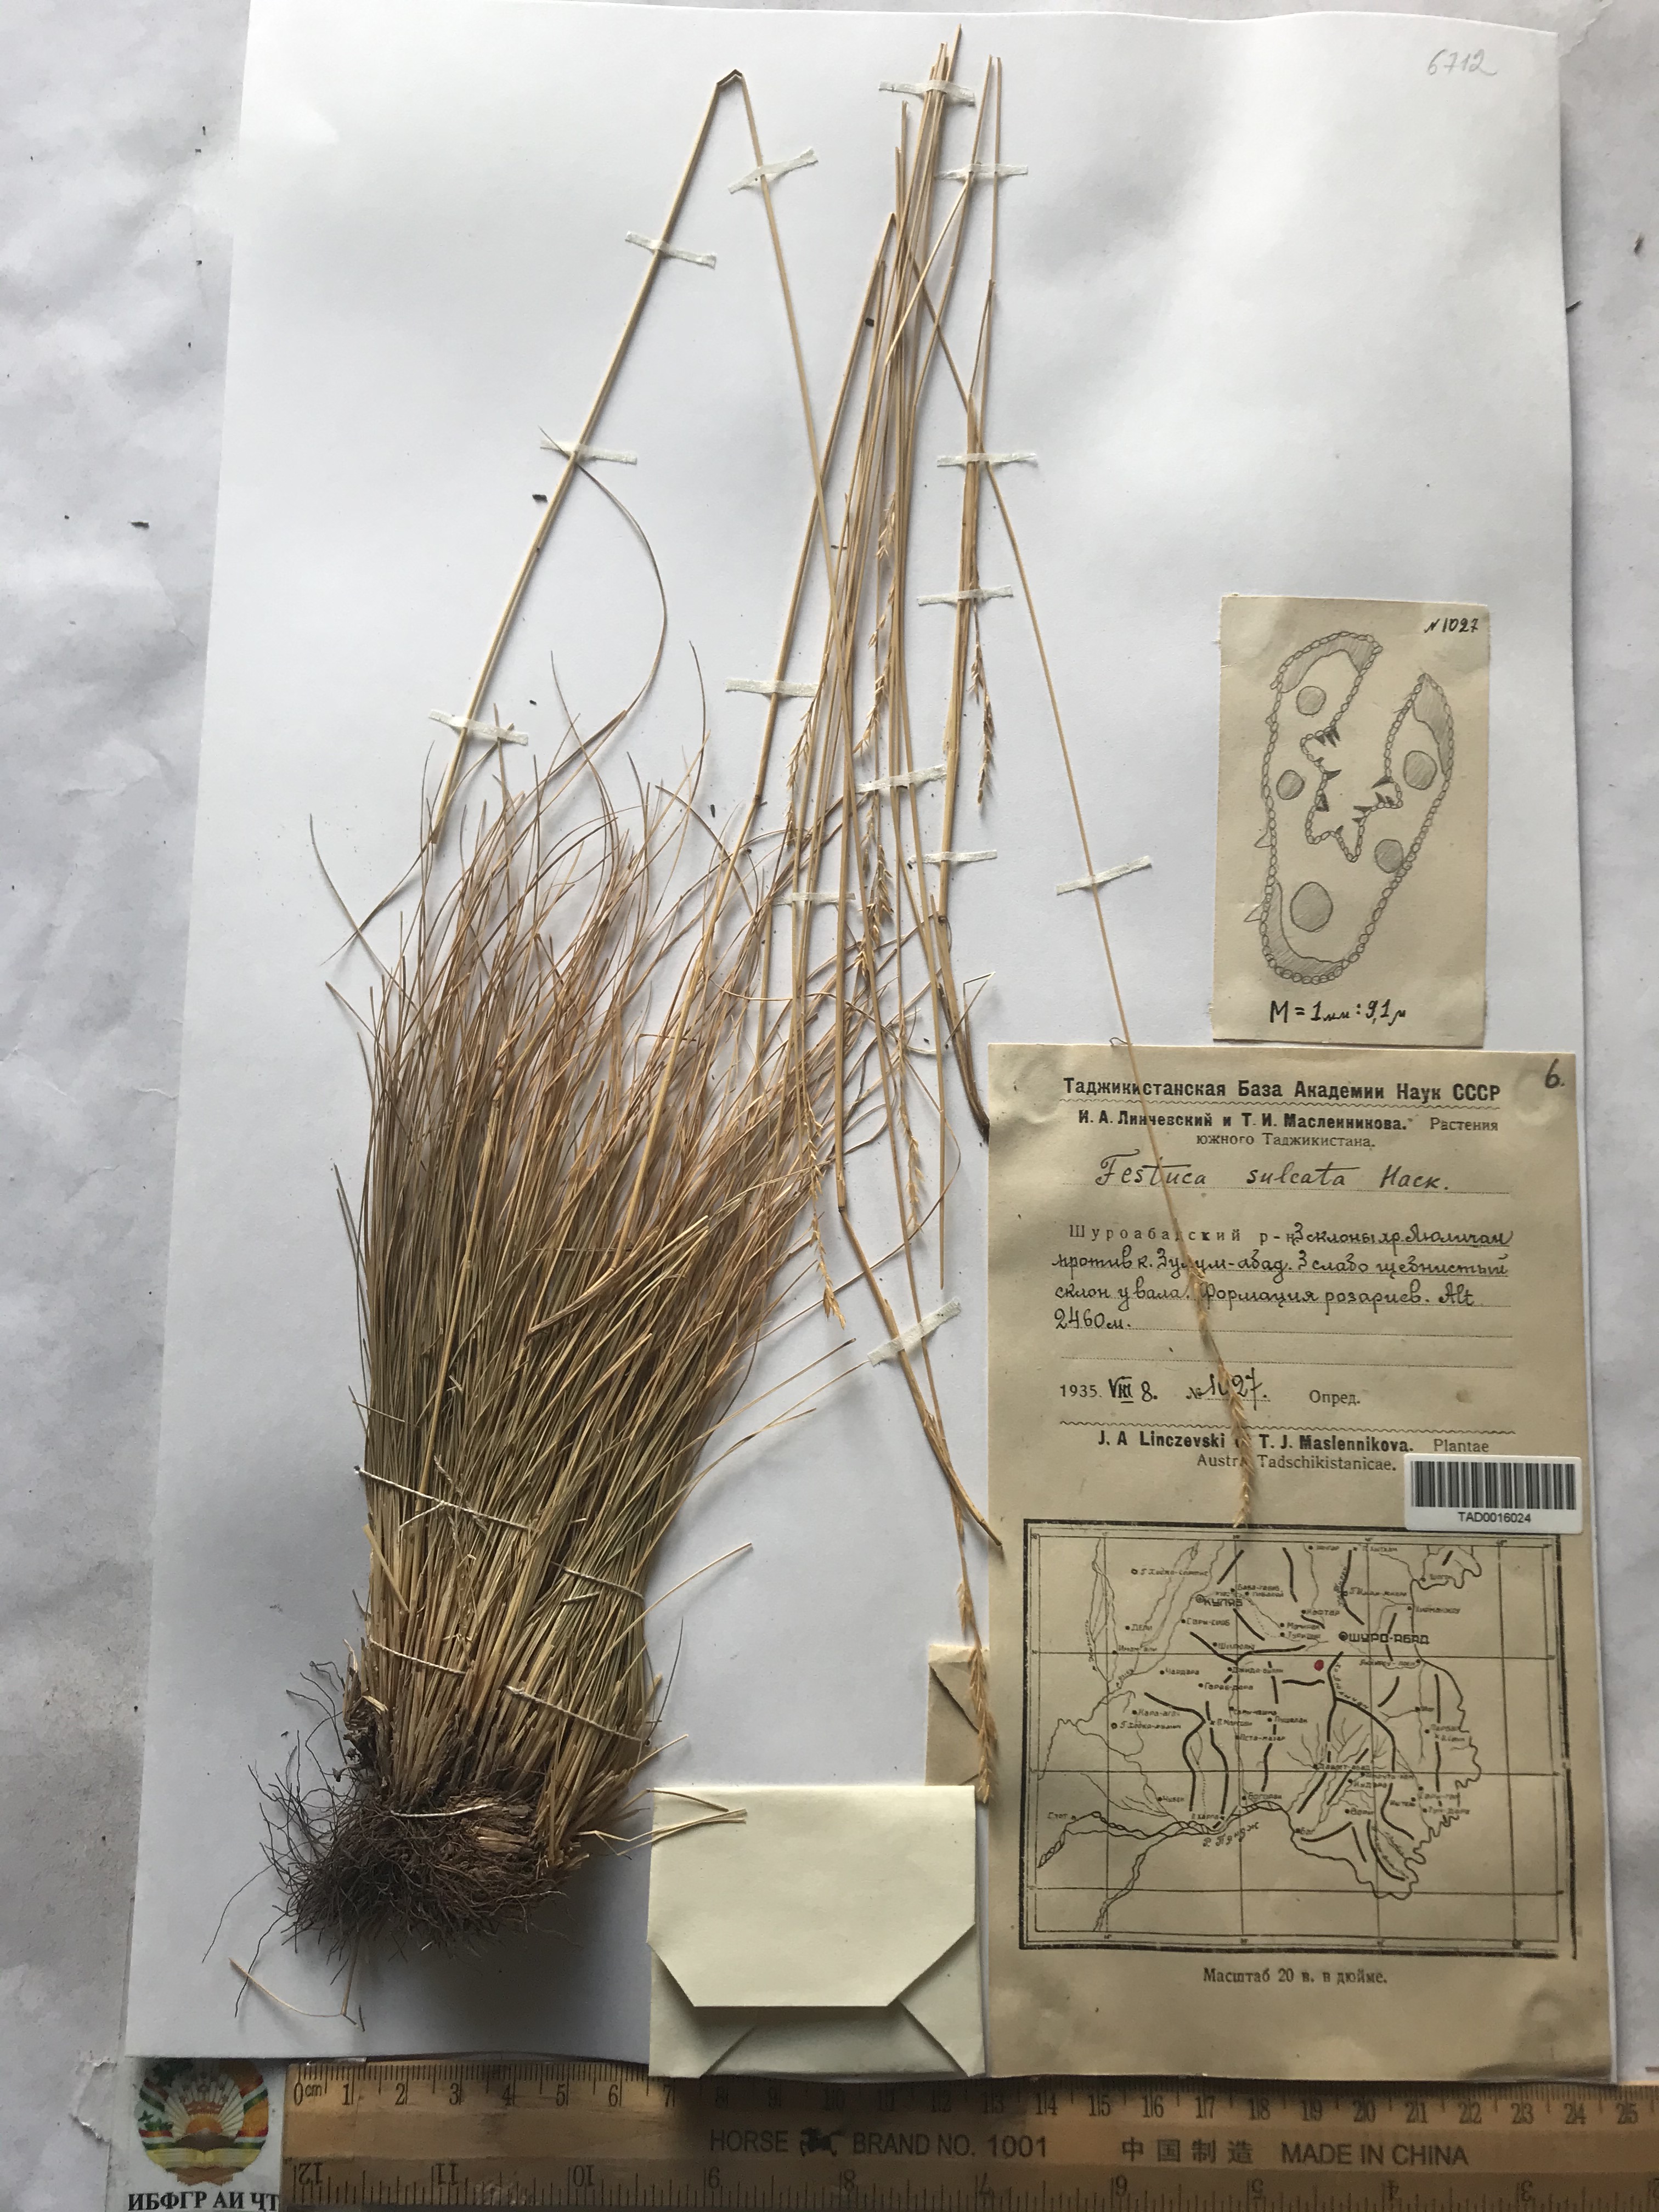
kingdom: Plantae
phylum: Tracheophyta
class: Liliopsida
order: Poales
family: Poaceae
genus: Festuca
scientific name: Festuca sulcata
